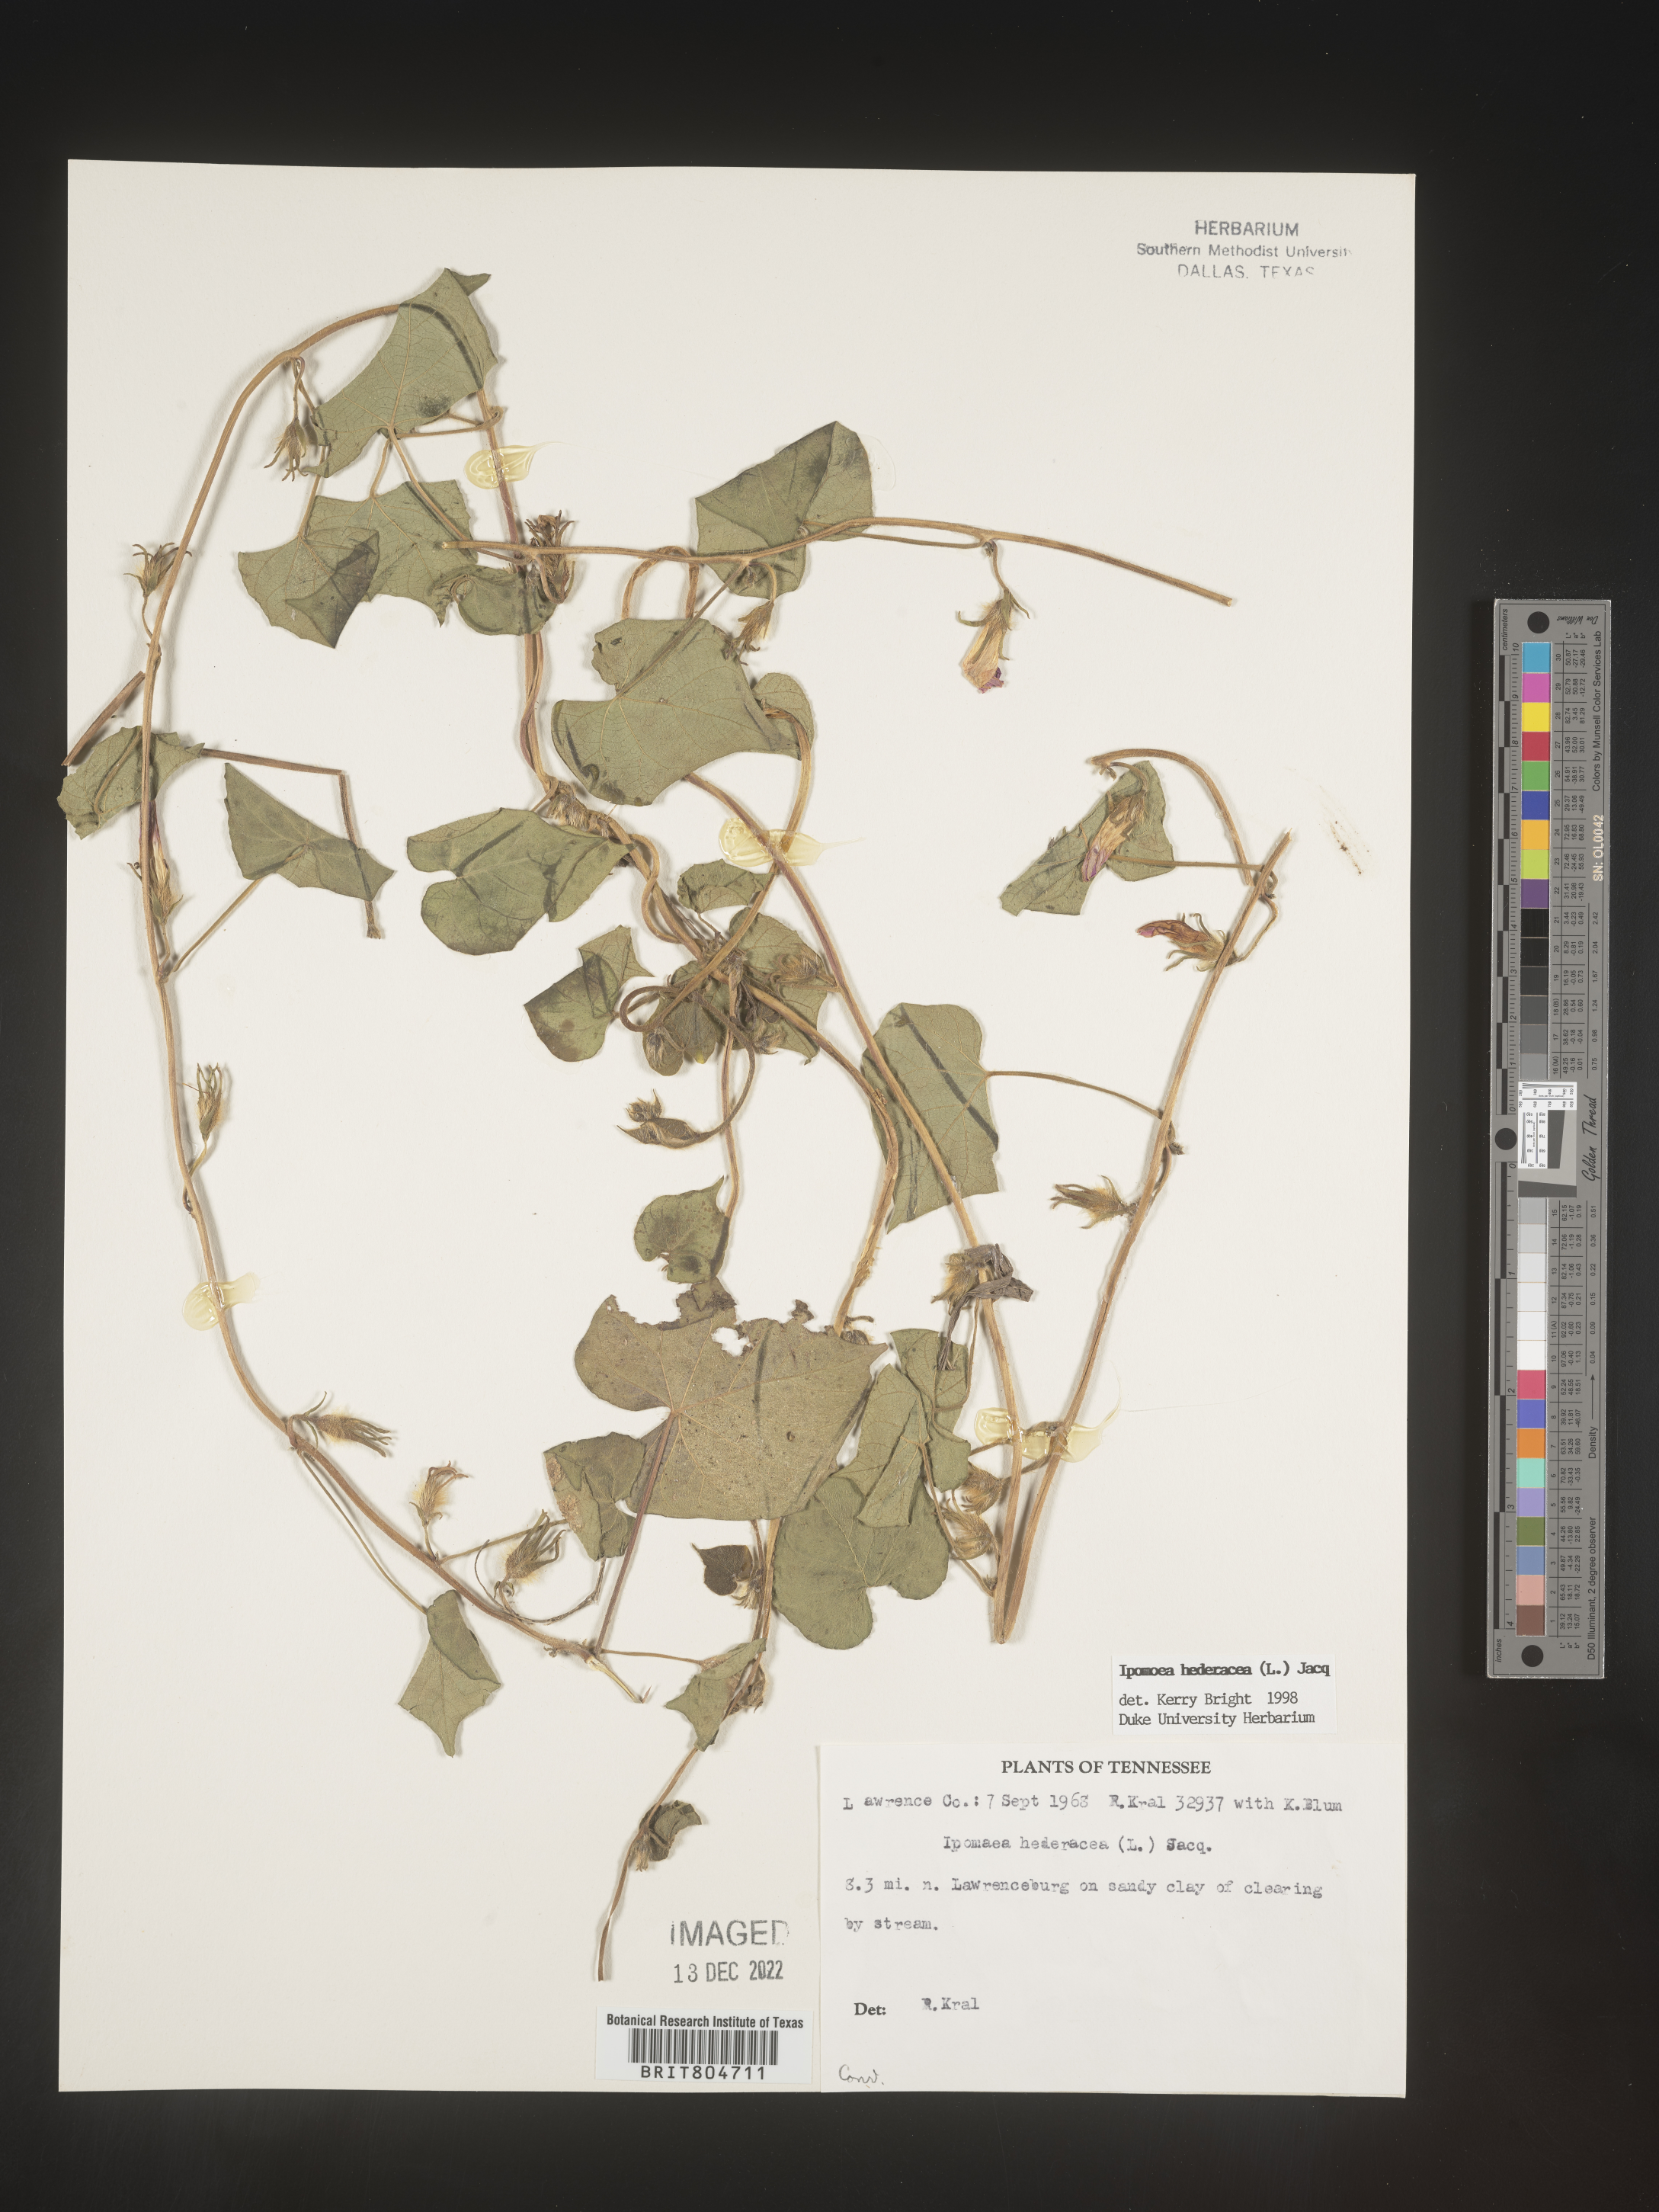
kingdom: Plantae
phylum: Tracheophyta
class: Magnoliopsida
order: Solanales
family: Convolvulaceae
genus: Ipomoea
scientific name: Ipomoea hederacea
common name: Ivy-leaved morning-glory
